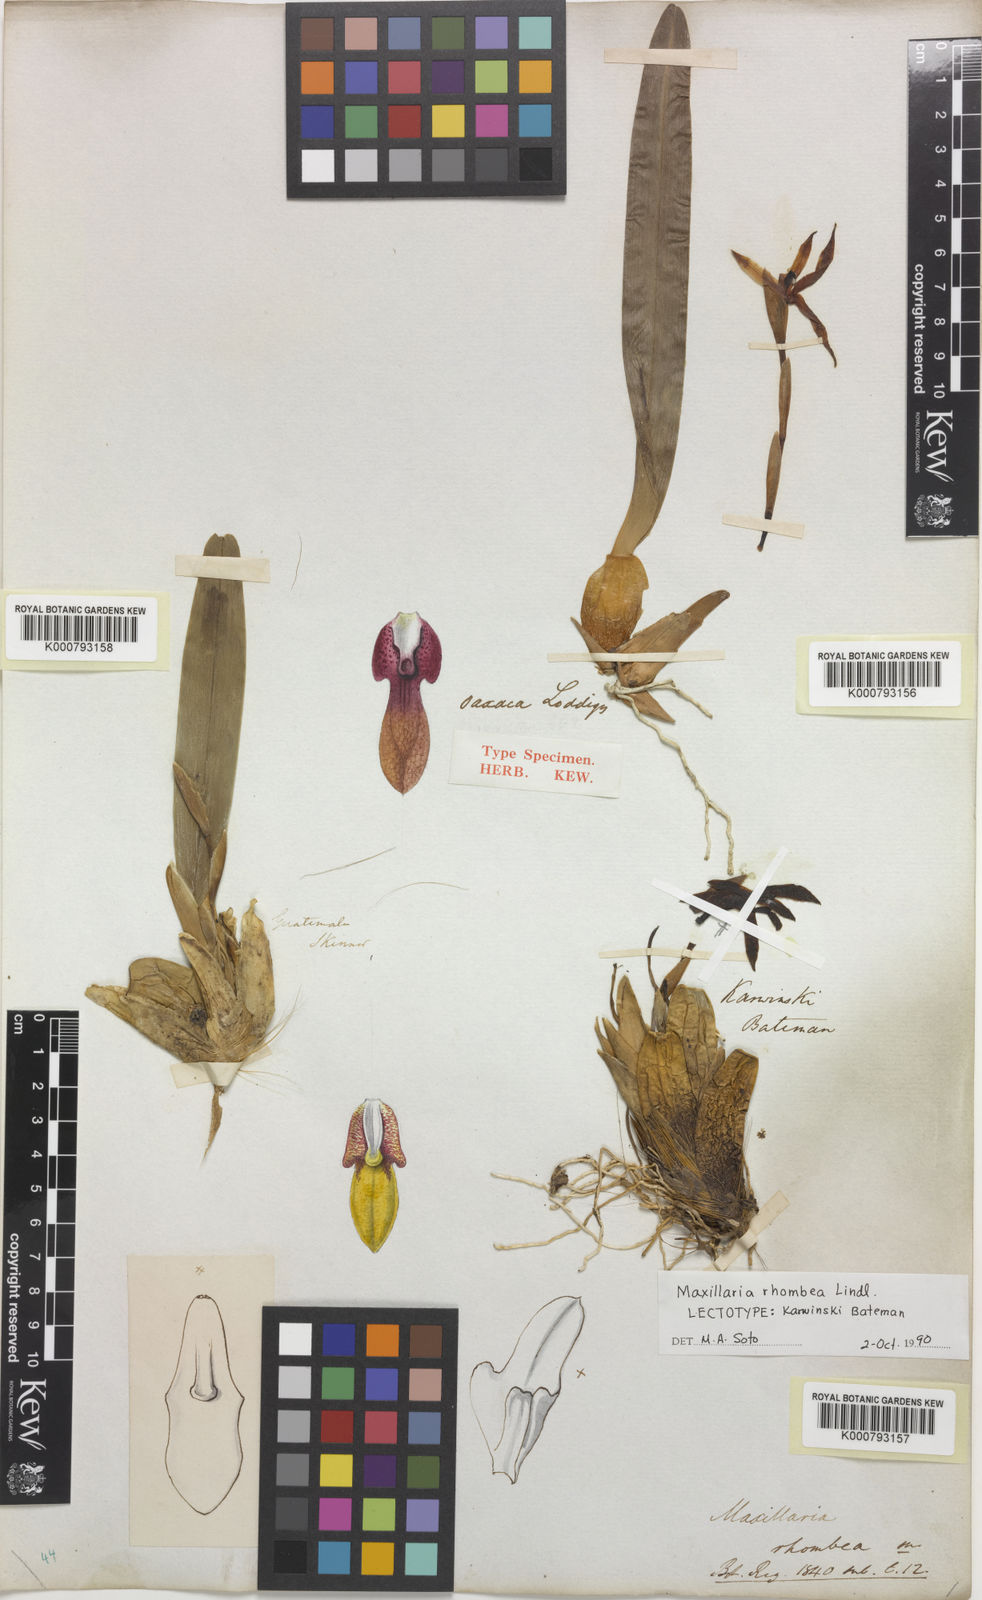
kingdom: Plantae
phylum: Tracheophyta
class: Liliopsida
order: Asparagales
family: Orchidaceae
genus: Maxillaria
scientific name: Maxillaria rhombea
